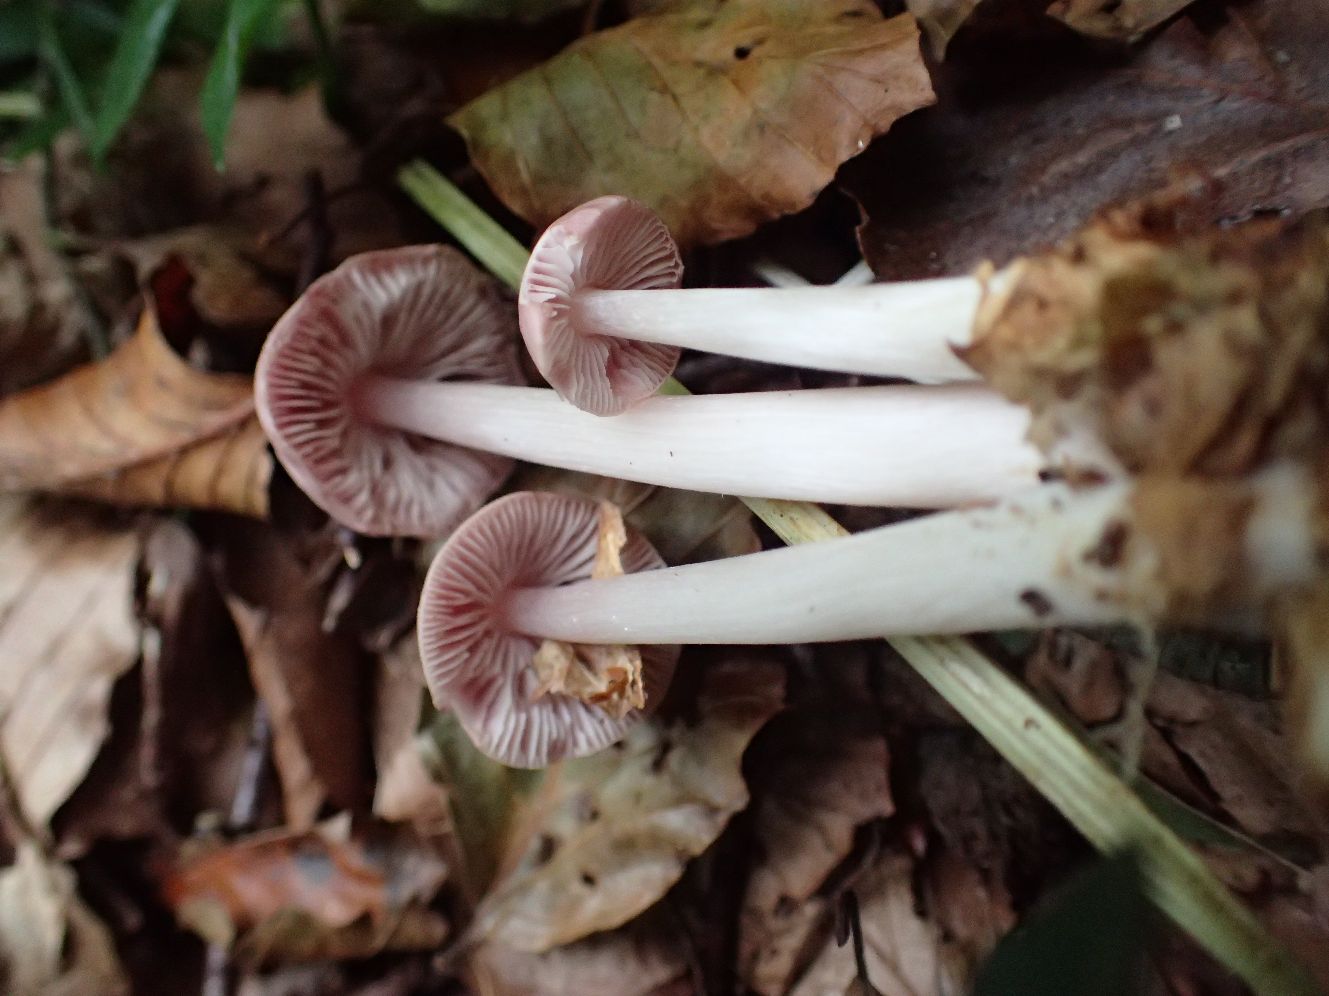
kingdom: Fungi
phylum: Basidiomycota
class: Agaricomycetes
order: Agaricales
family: Mycenaceae
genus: Mycena
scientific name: Mycena rosea
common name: rosa huesvamp
